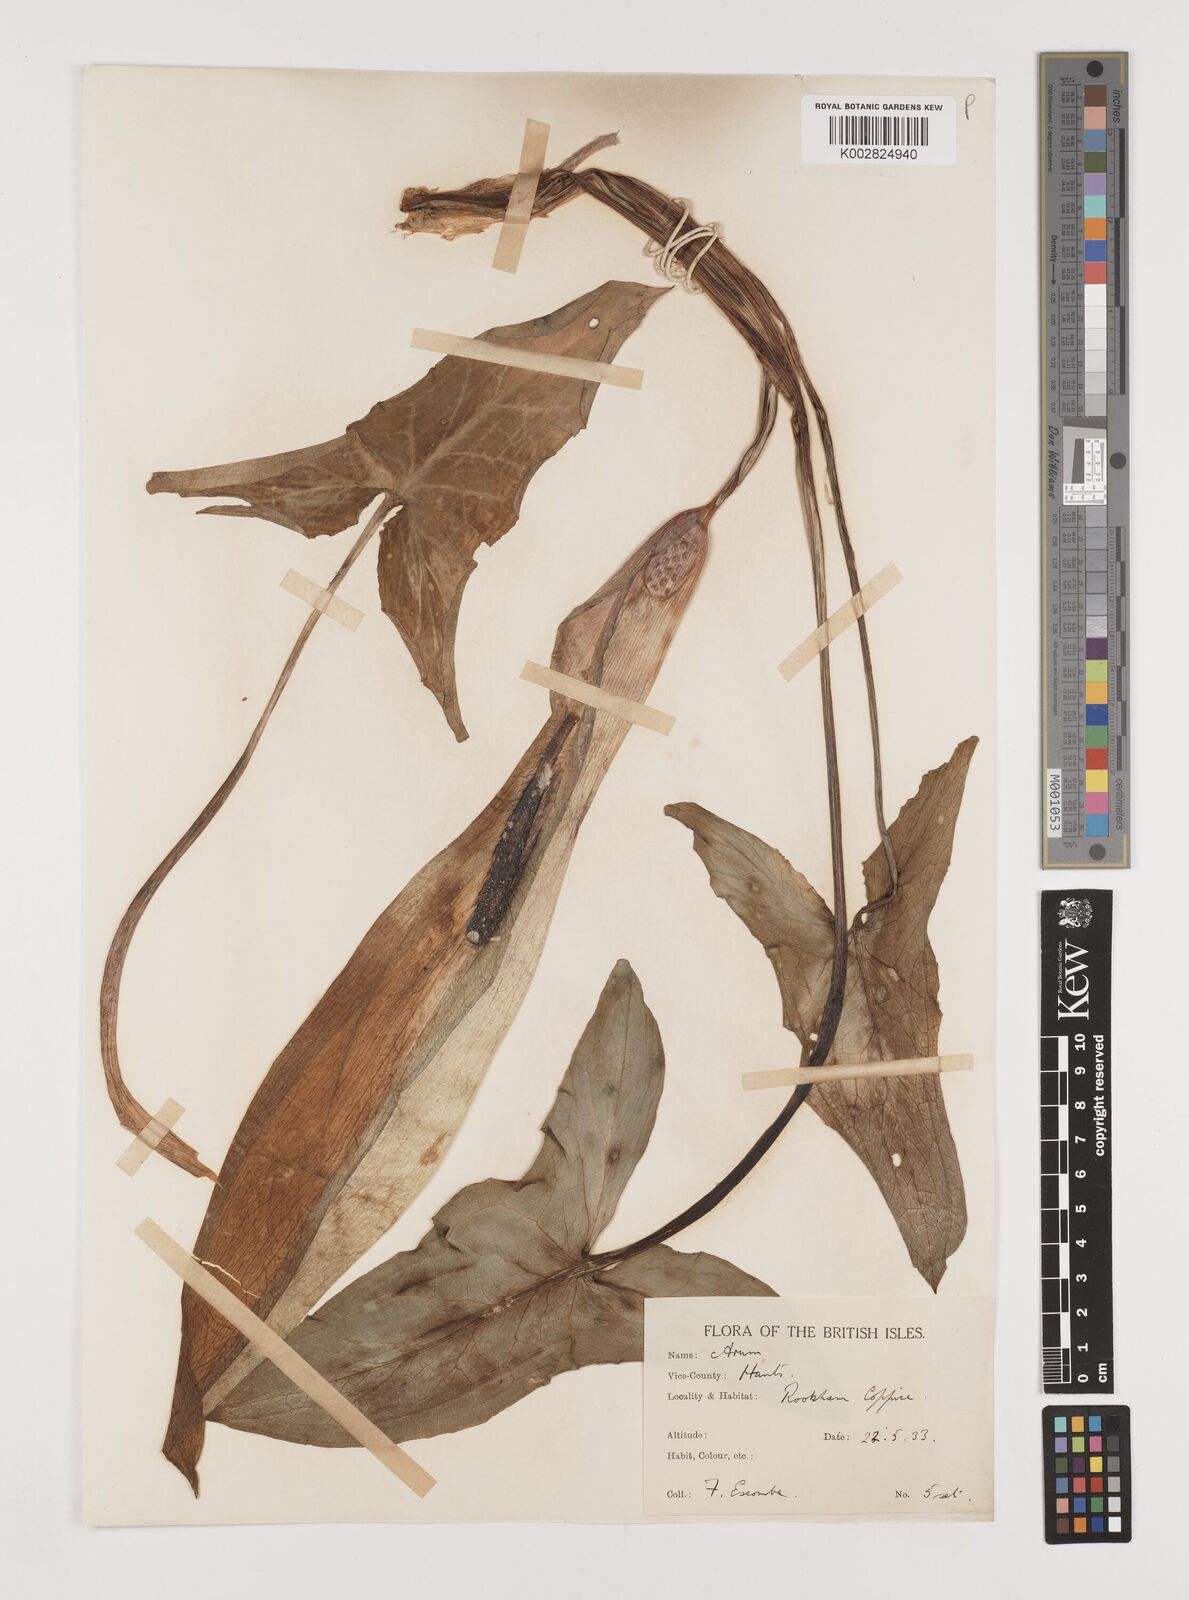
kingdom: Plantae
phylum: Tracheophyta
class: Liliopsida
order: Alismatales
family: Araceae
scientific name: Araceae
